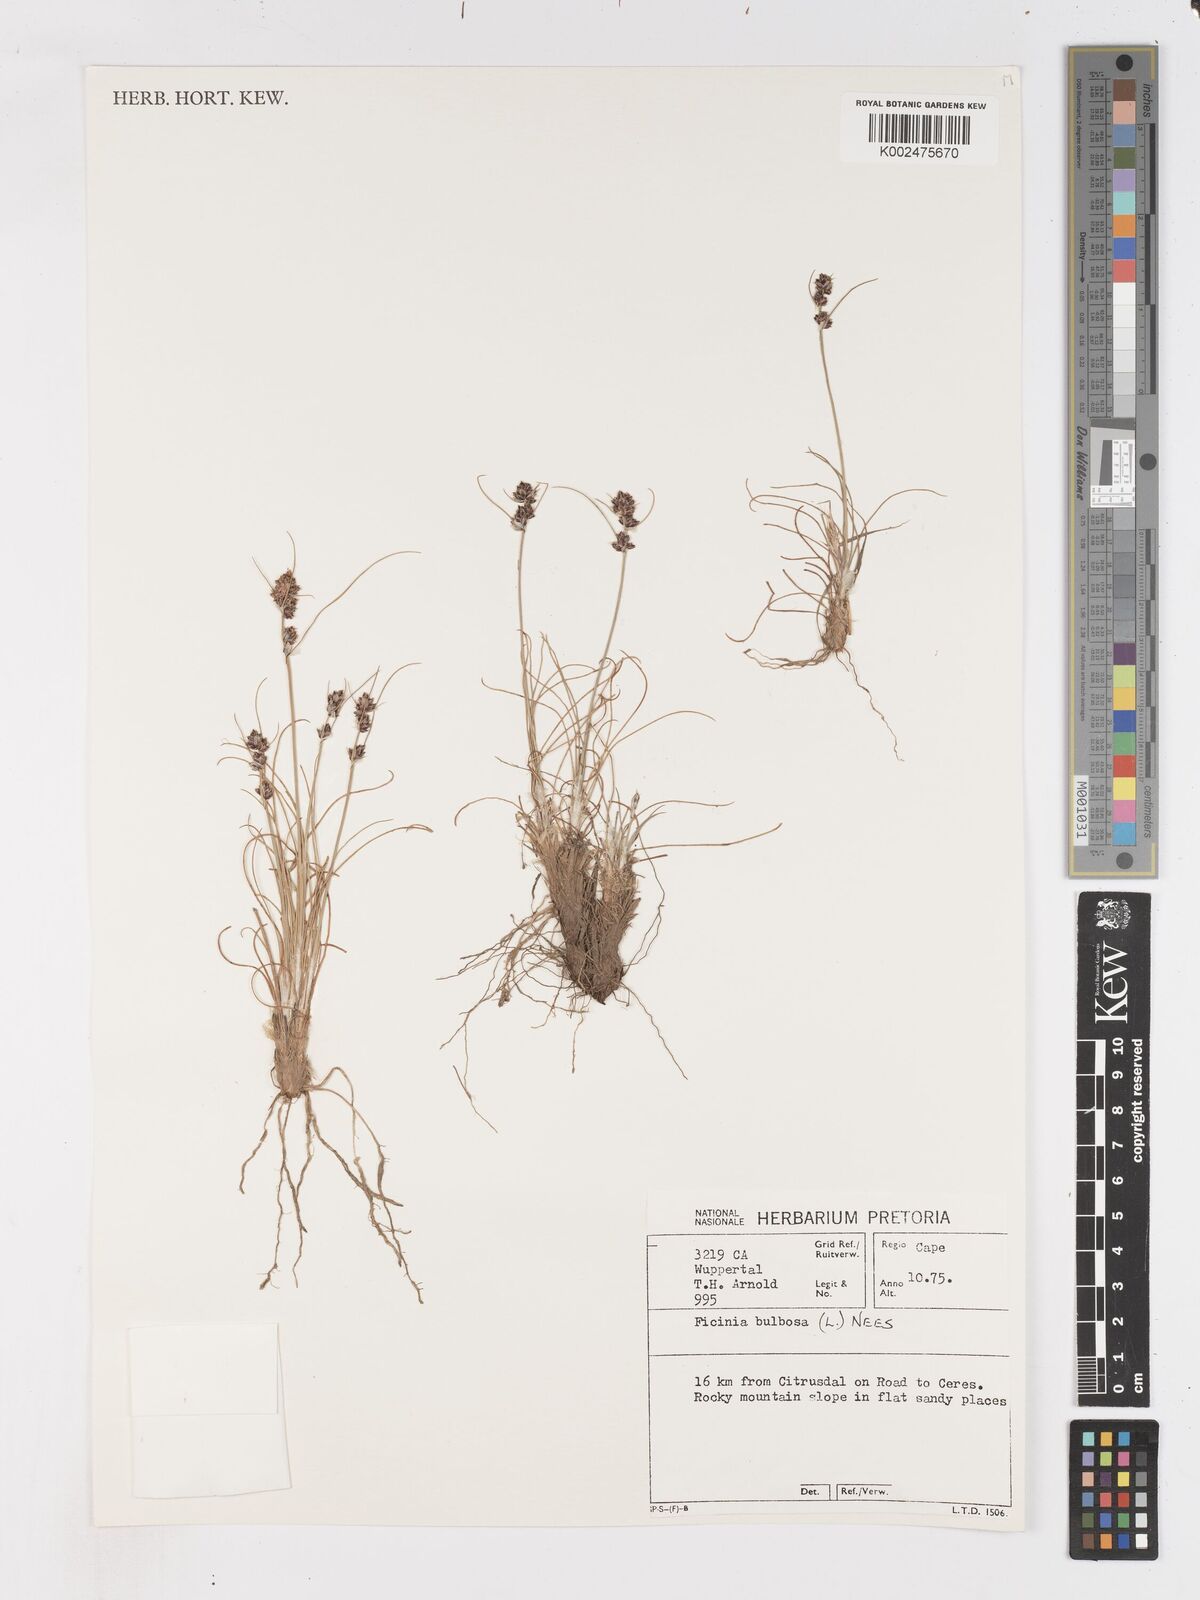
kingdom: Plantae
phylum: Tracheophyta
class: Liliopsida
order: Poales
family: Cyperaceae
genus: Ficinia
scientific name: Ficinia bulbosa
